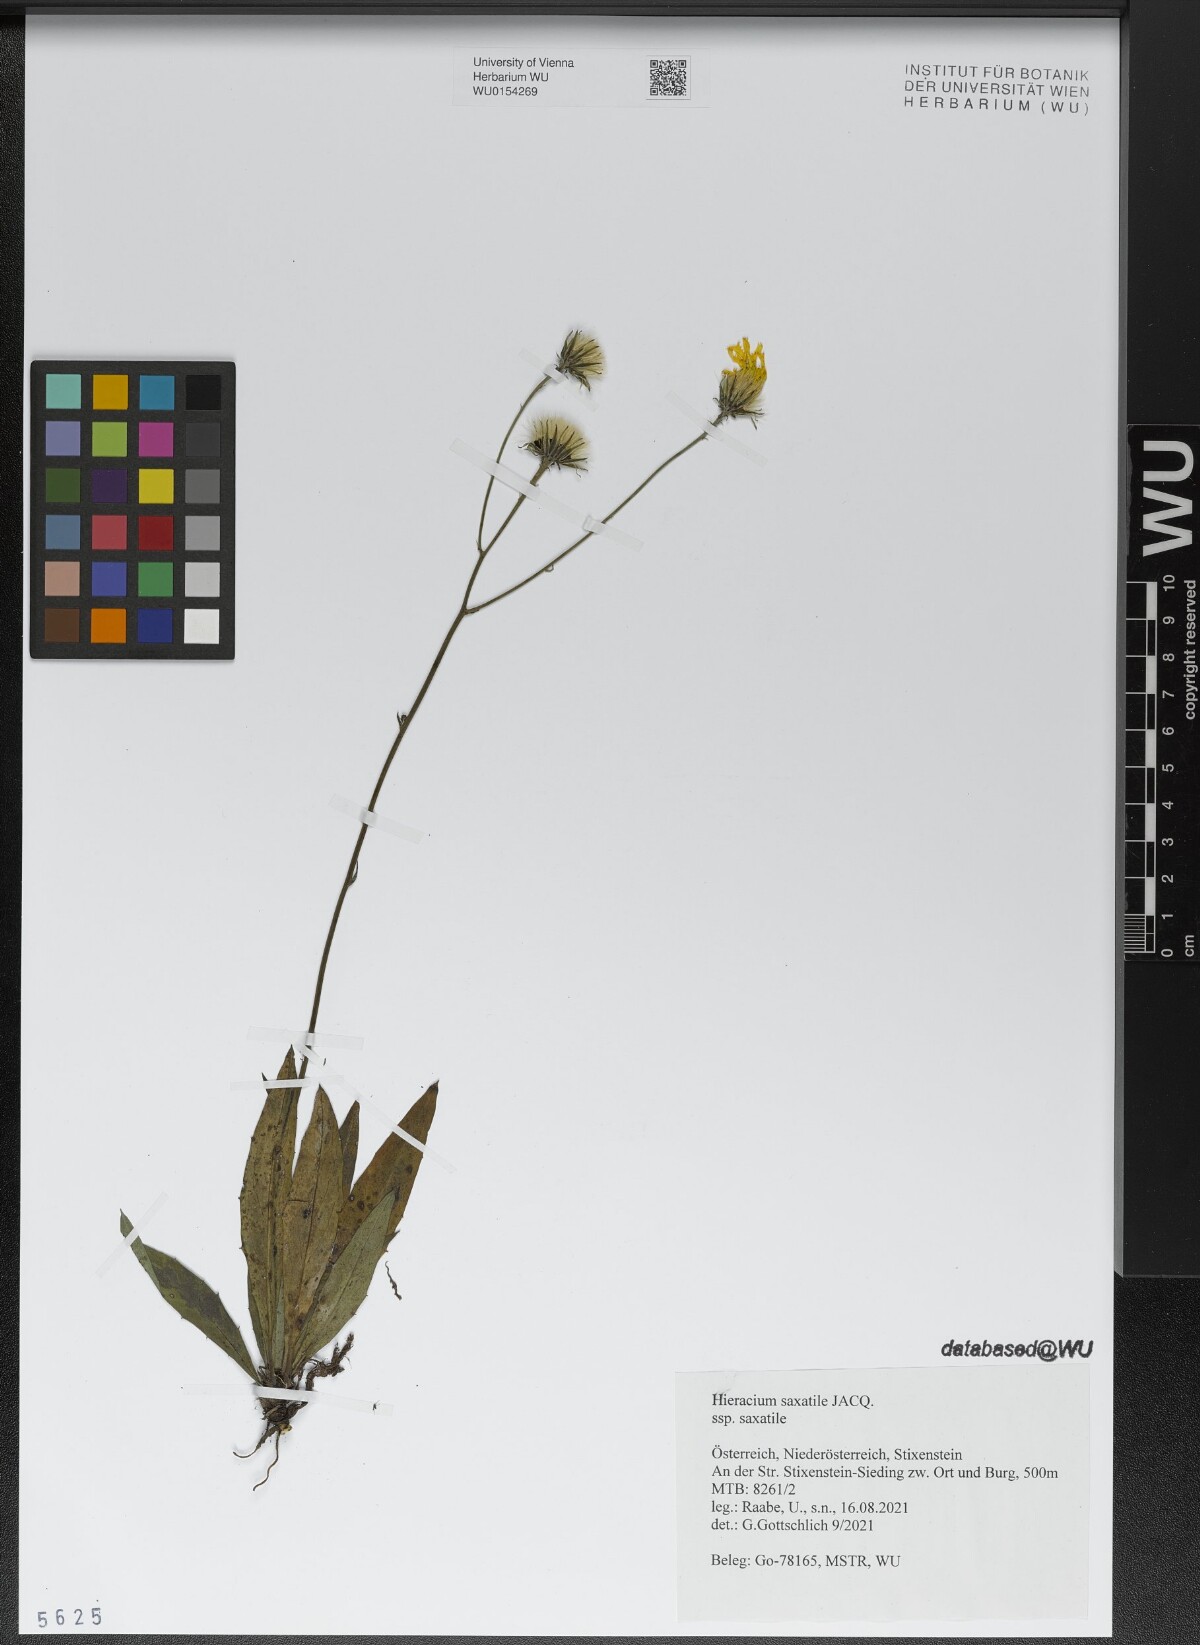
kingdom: Plantae
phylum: Tracheophyta
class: Magnoliopsida
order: Asterales
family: Asteraceae
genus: Hieracium
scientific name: Hieracium saxatile
